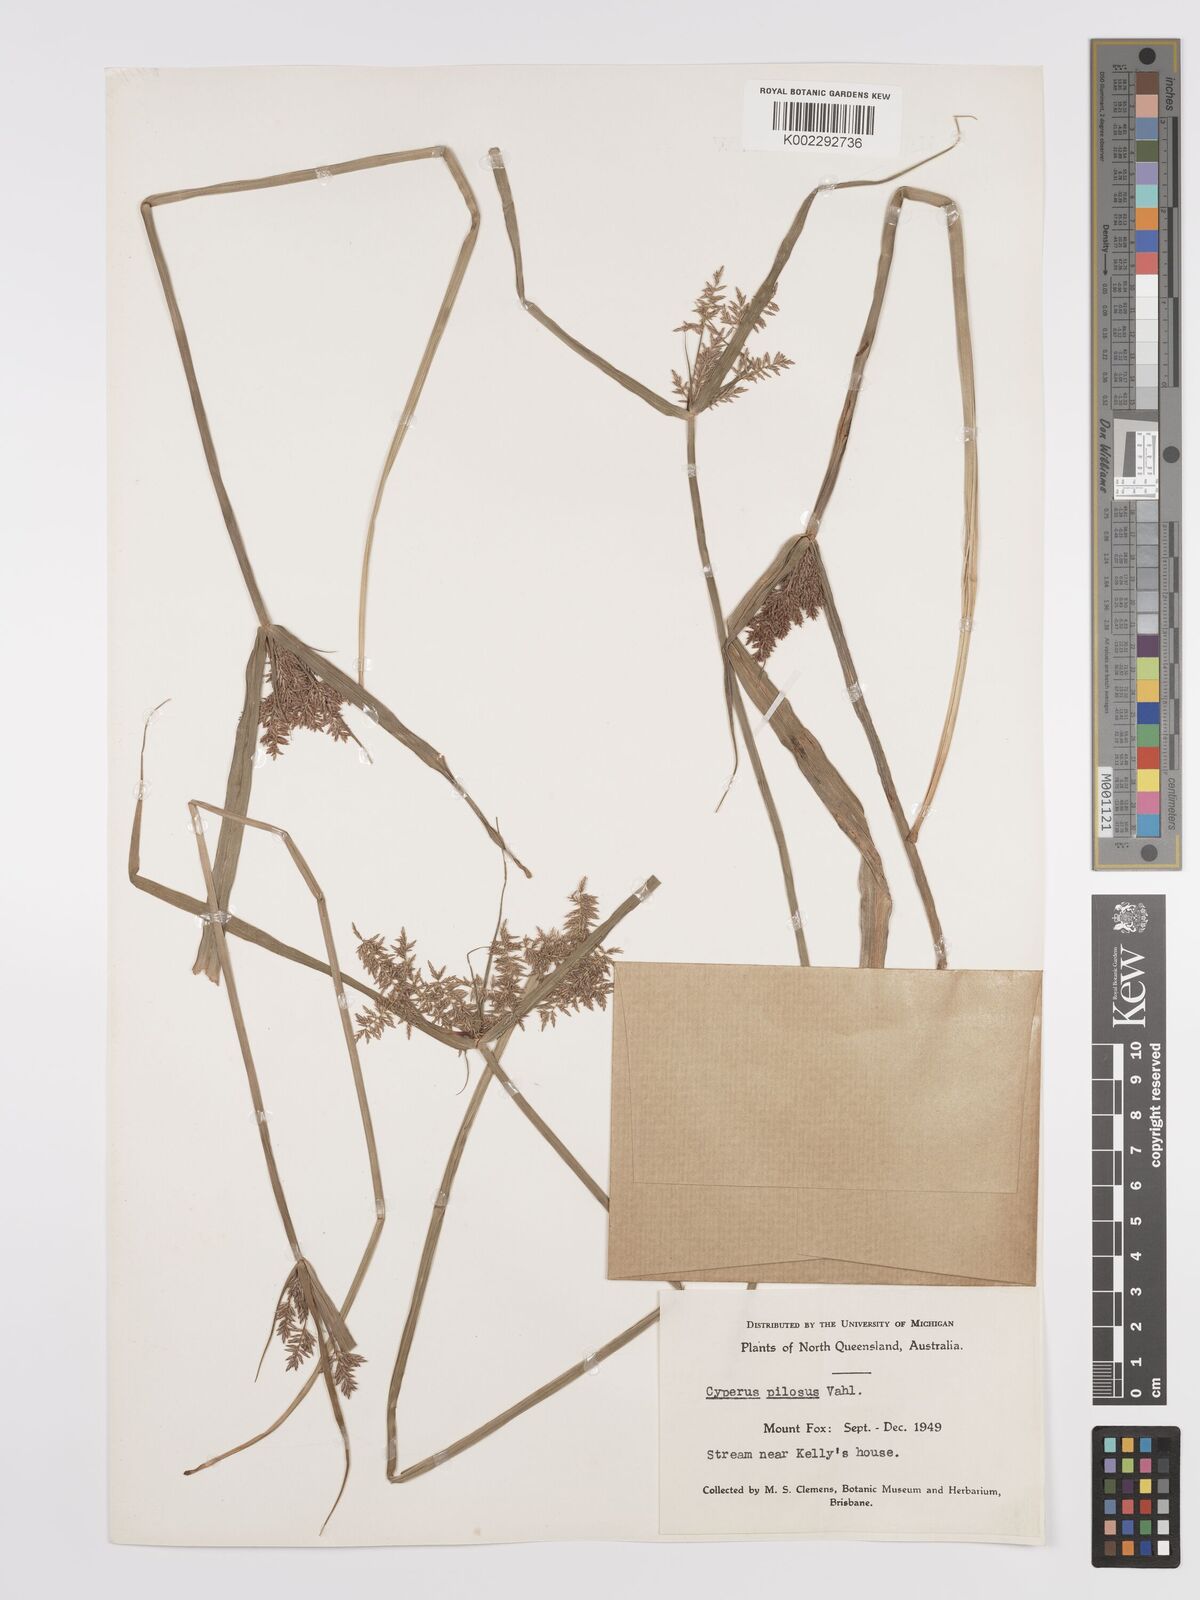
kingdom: Plantae
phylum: Tracheophyta
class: Liliopsida
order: Poales
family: Cyperaceae
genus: Cyperus
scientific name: Cyperus pilosus
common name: Fuzzy flatsedge
